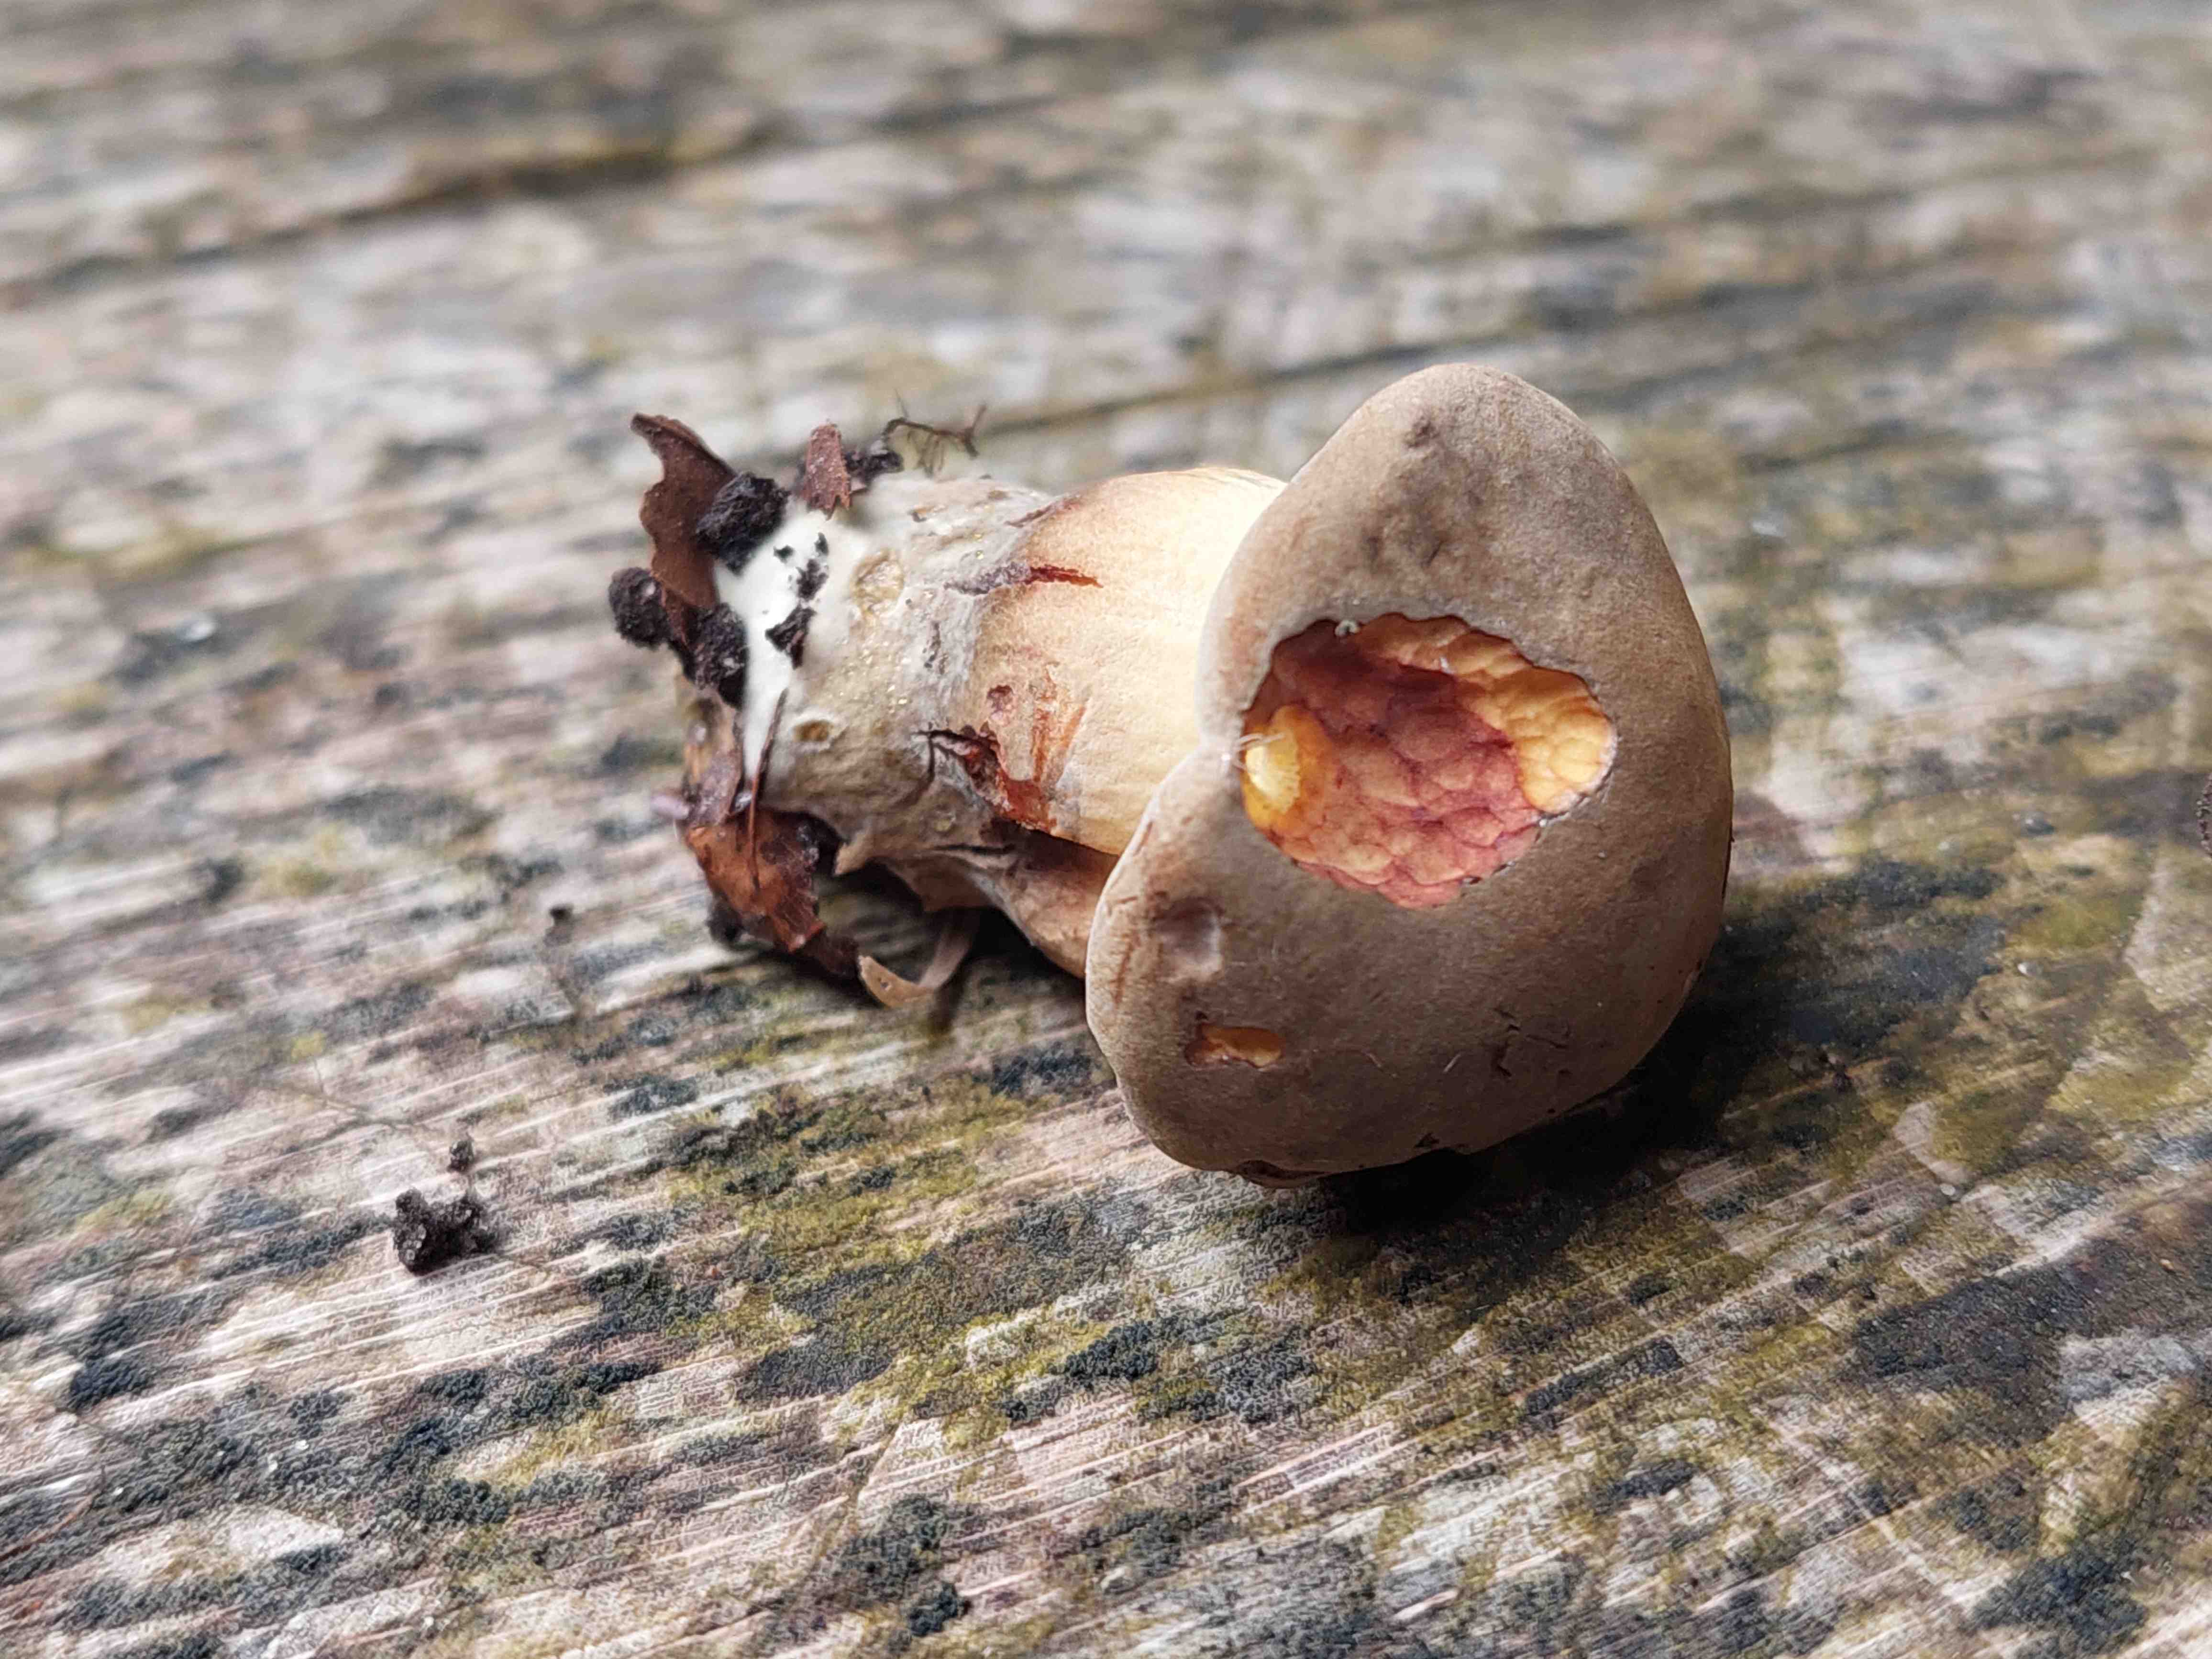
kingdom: Fungi
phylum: Basidiomycota
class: Agaricomycetes
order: Boletales
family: Boletaceae
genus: Butyriboletus
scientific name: Butyriboletus appendiculatus
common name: tenstokket rørhat
